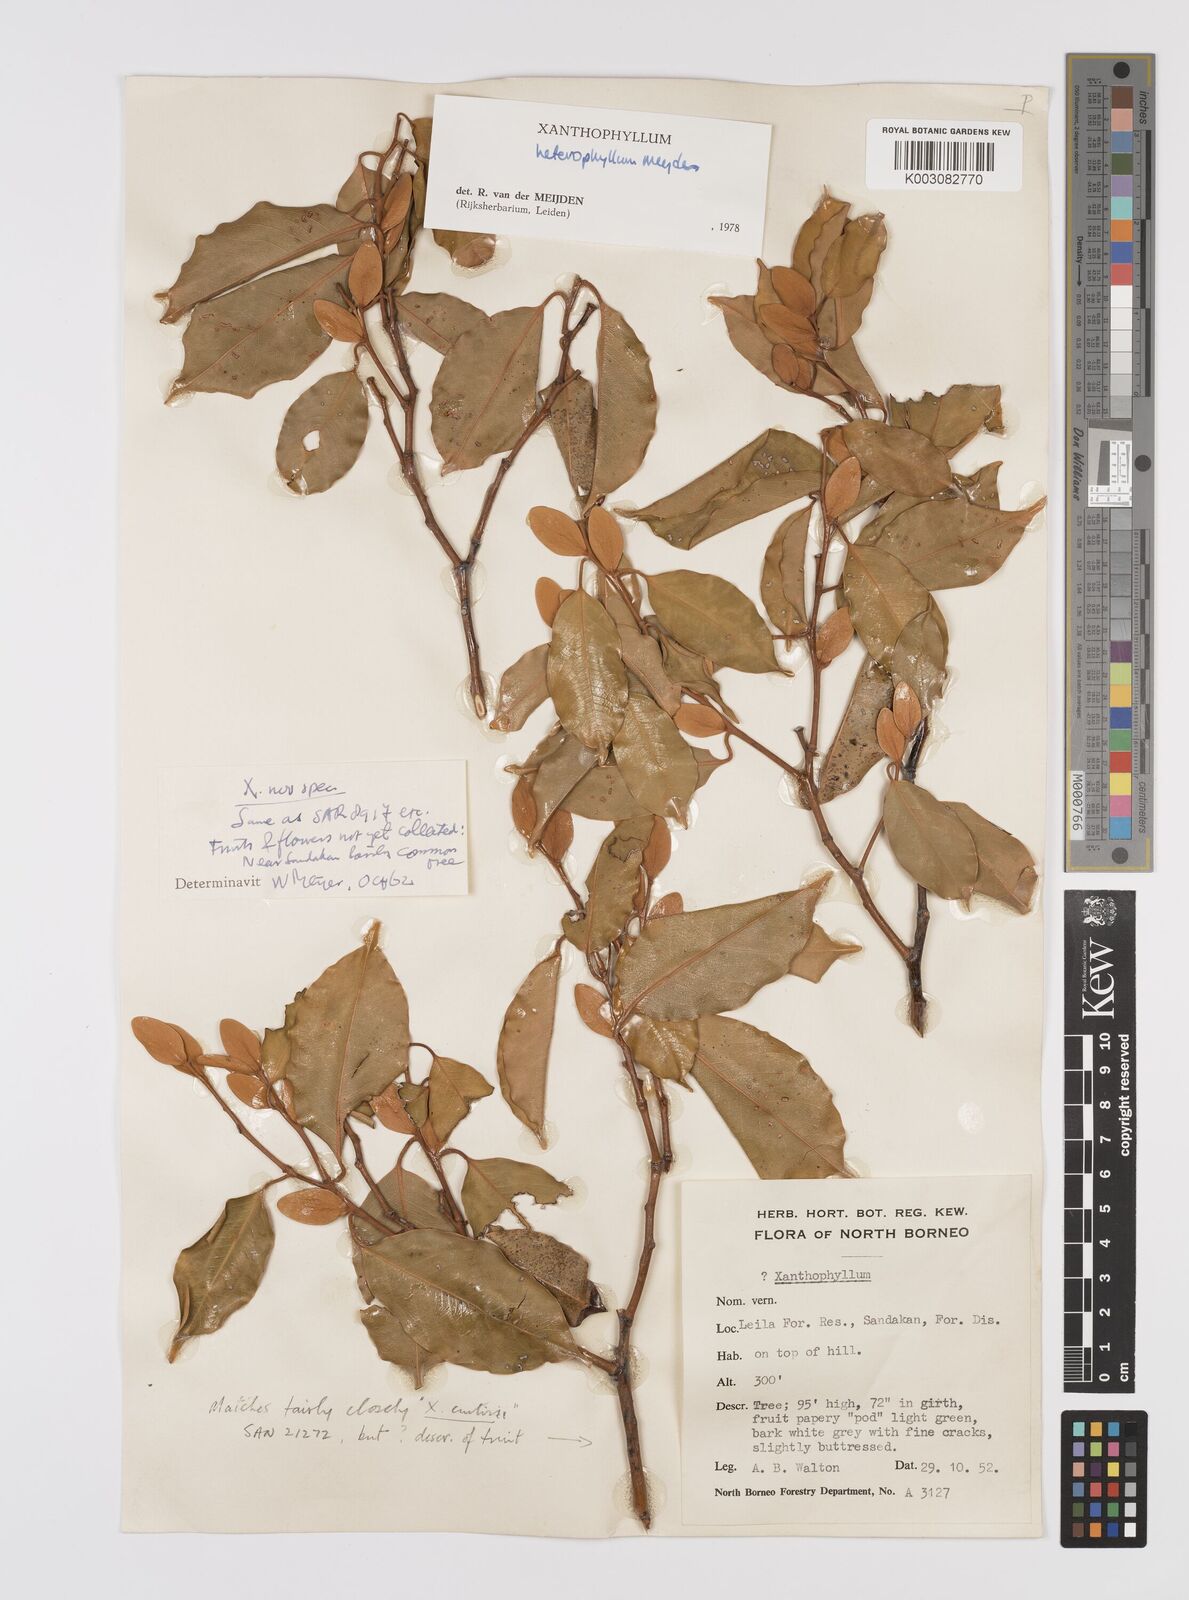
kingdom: Plantae
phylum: Tracheophyta
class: Magnoliopsida
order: Fabales
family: Polygalaceae
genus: Xanthophyllum
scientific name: Xanthophyllum heterophyllum
